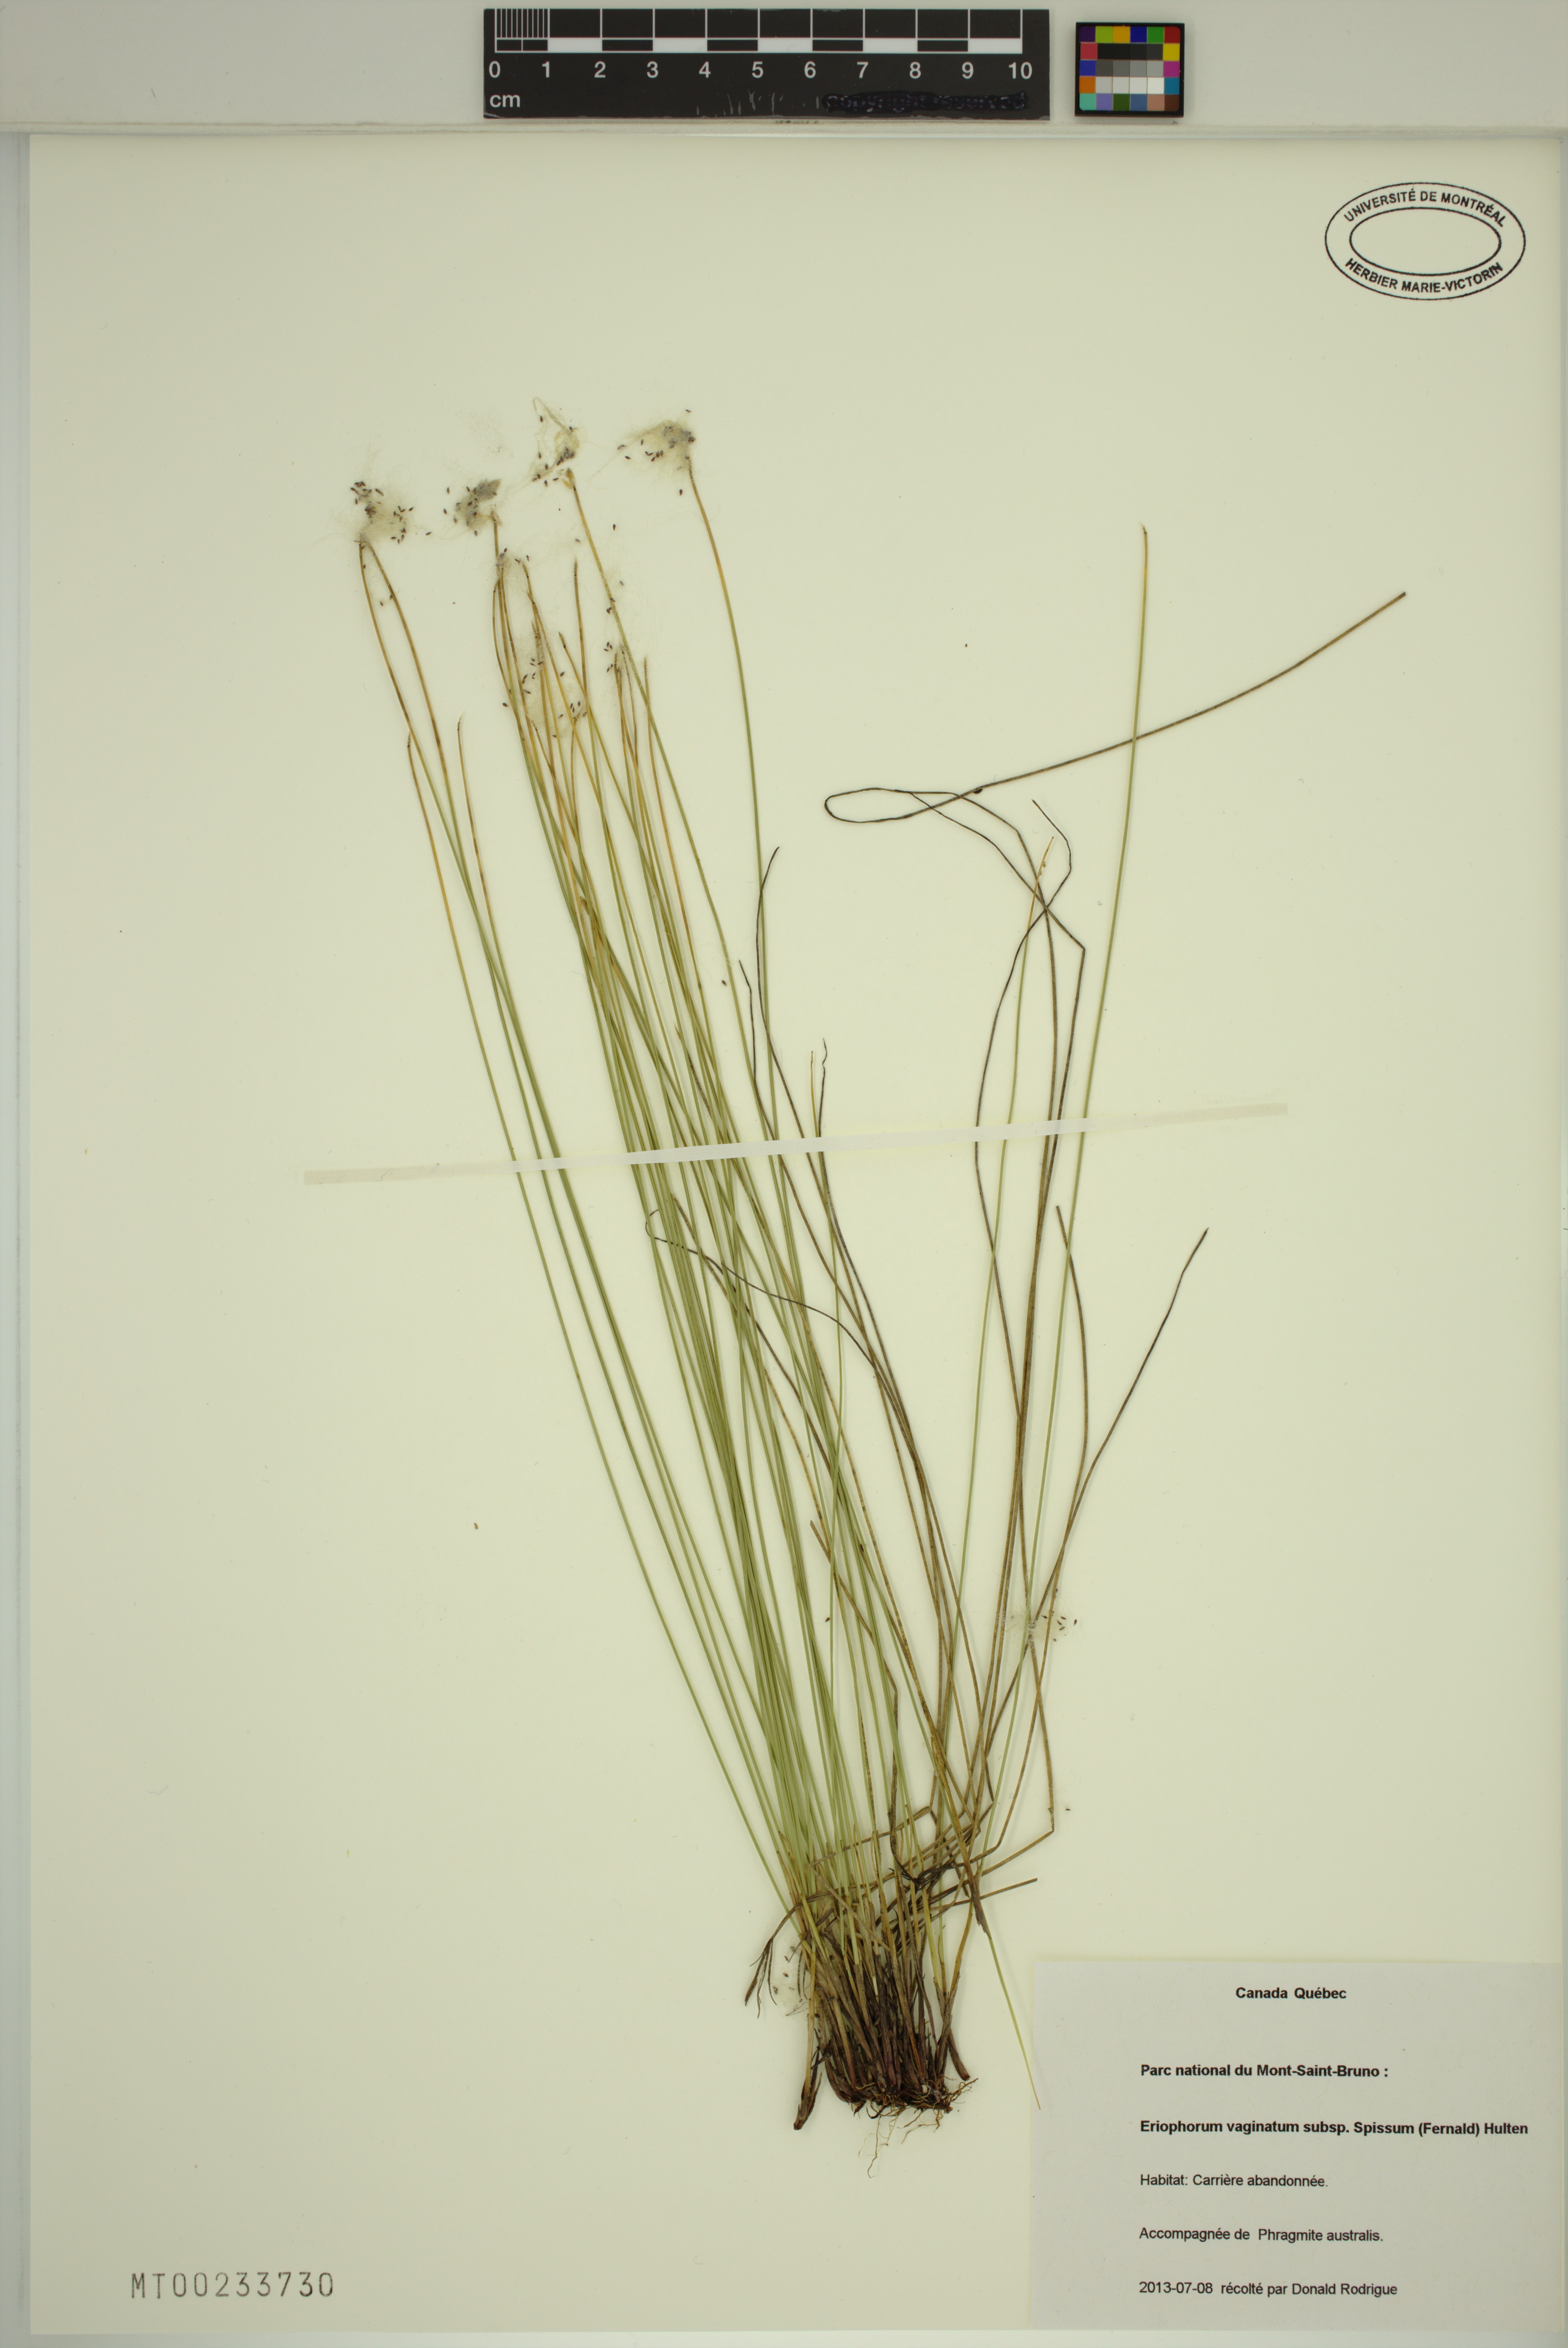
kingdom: Plantae
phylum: Tracheophyta
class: Liliopsida
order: Poales
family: Cyperaceae
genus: Eriophorum
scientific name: Eriophorum vaginatum
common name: Hare's-tail cottongrass
